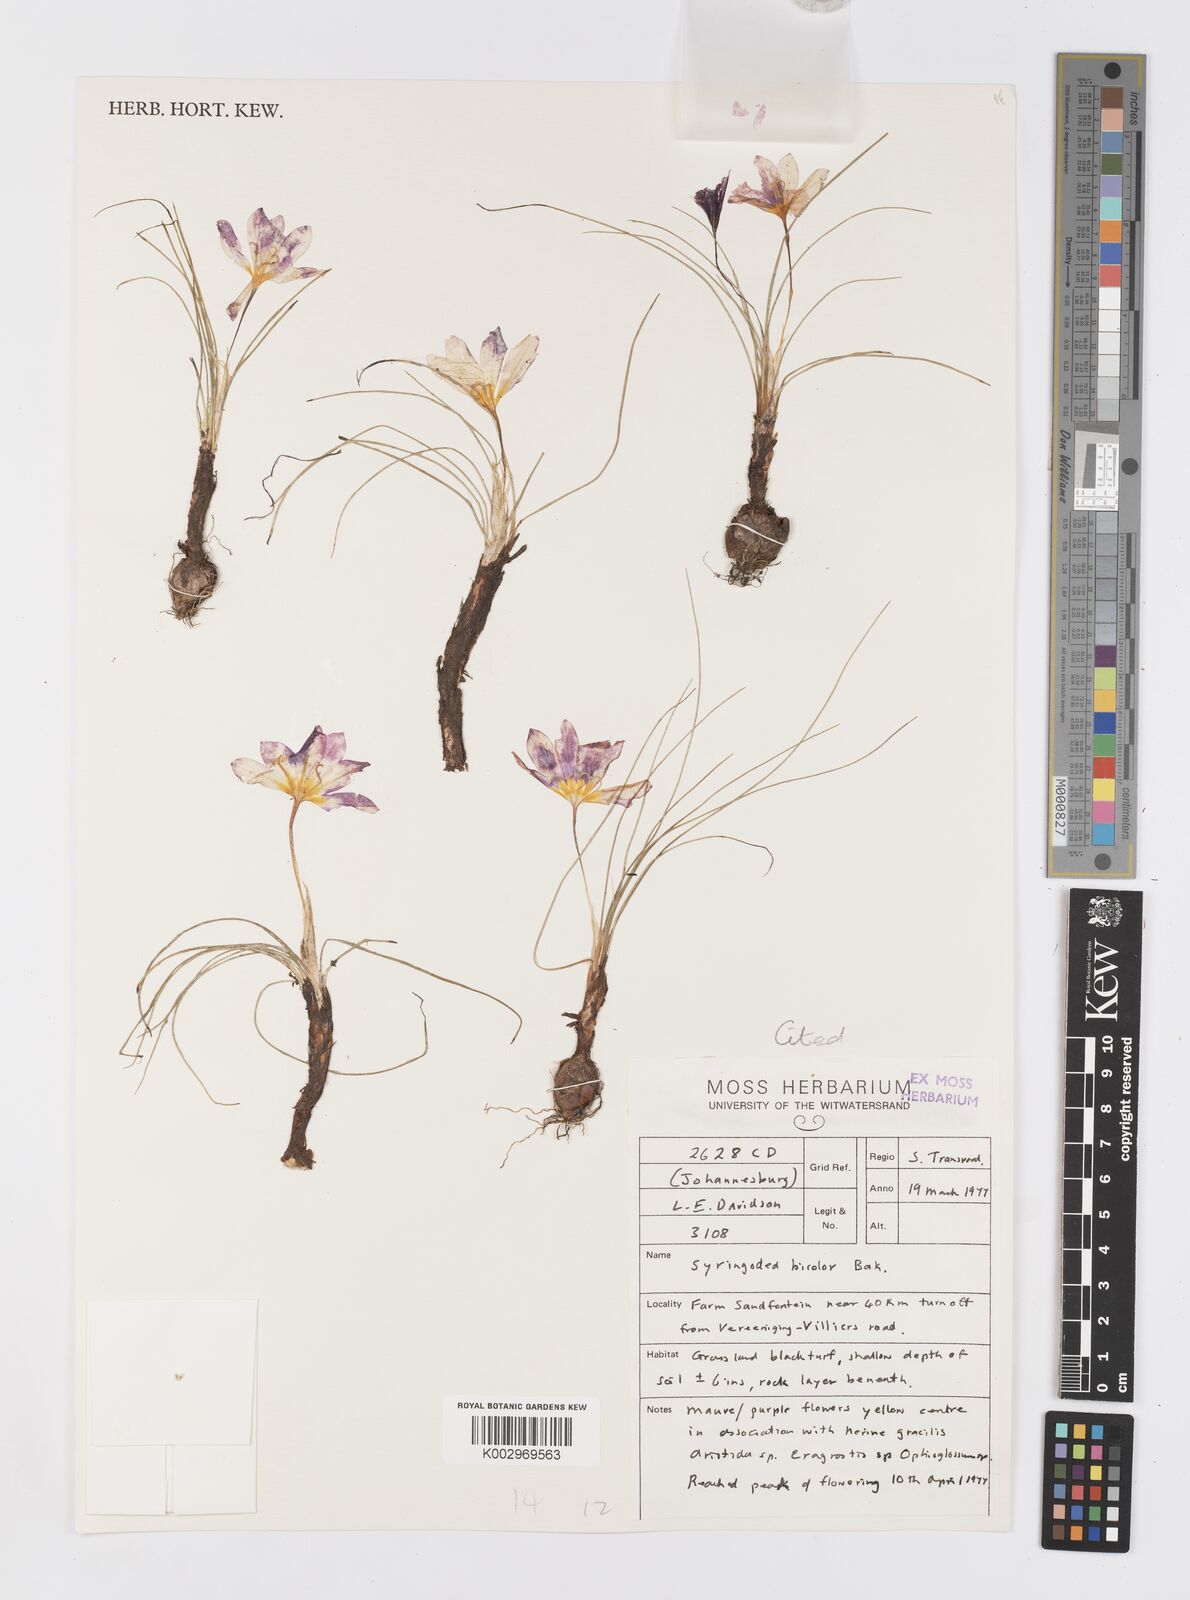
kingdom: Plantae
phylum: Tracheophyta
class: Liliopsida
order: Asparagales
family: Iridaceae
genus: Syringodea
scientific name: Syringodea bifucata
